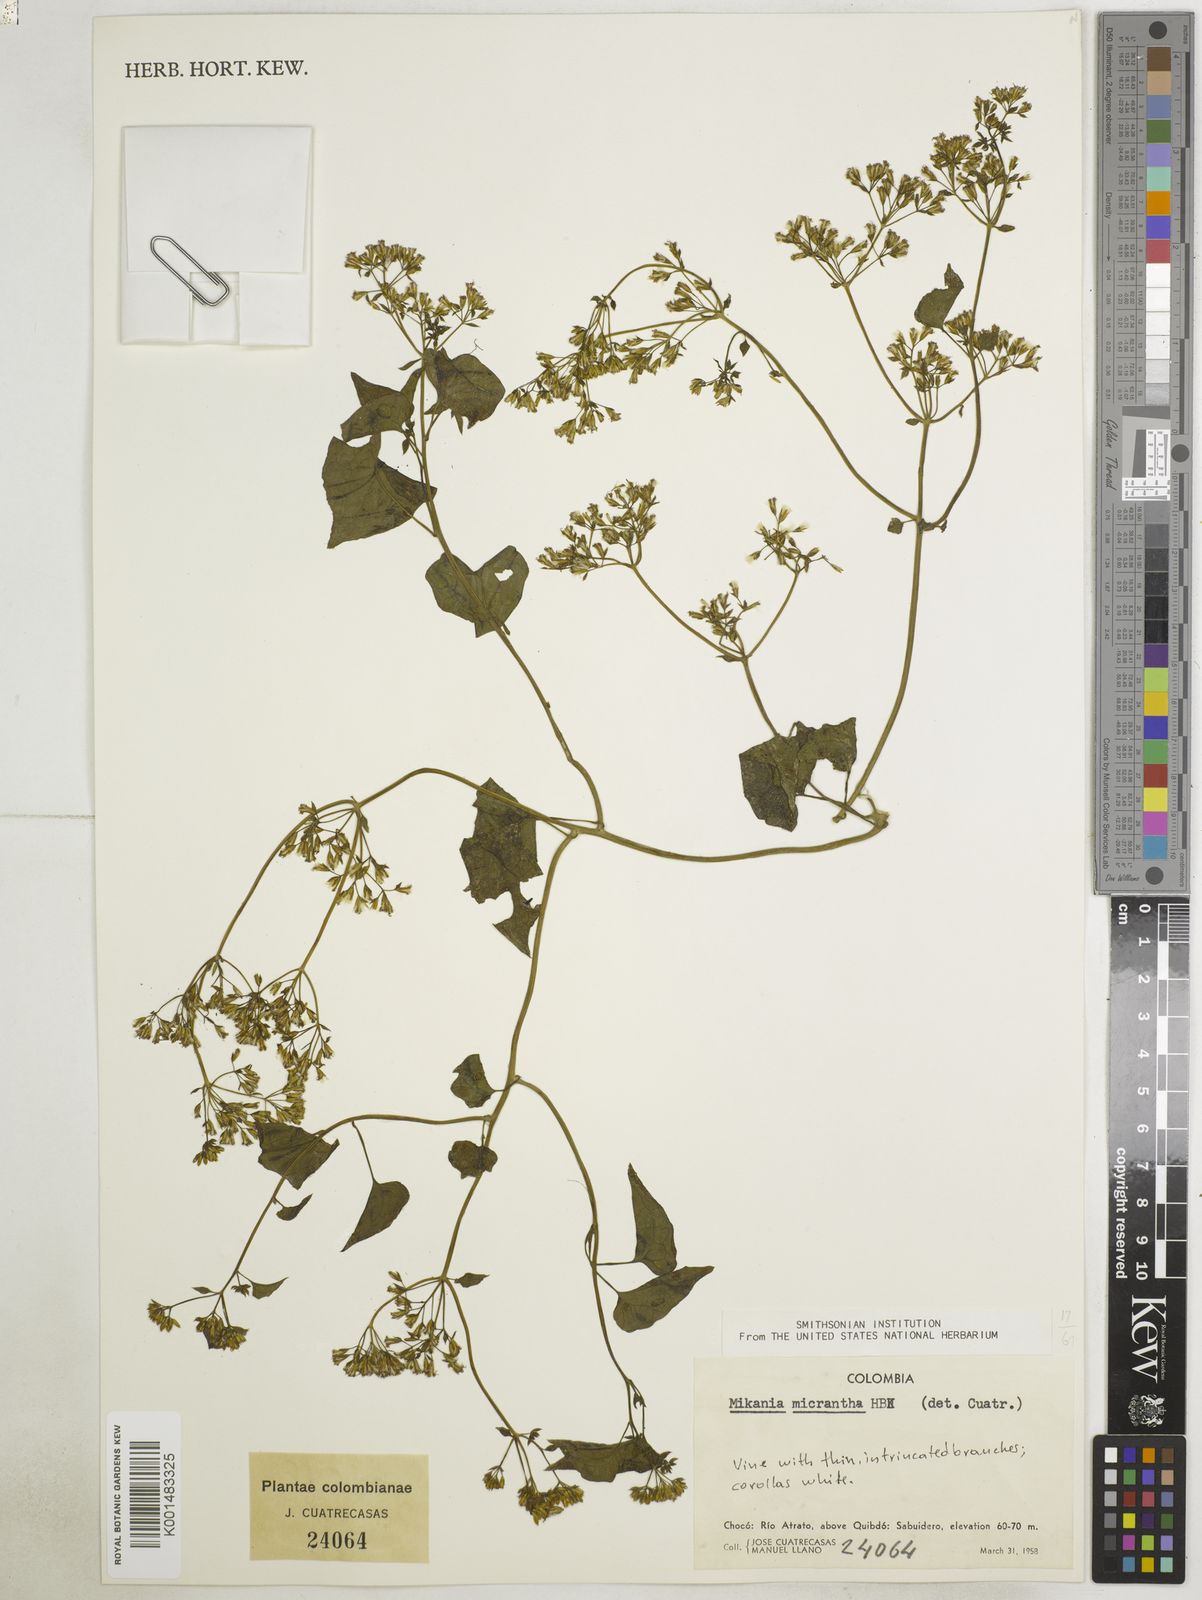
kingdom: Plantae
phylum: Tracheophyta
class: Magnoliopsida
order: Asterales
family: Asteraceae
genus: Mikania
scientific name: Mikania micrantha
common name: Mile-a-minute
